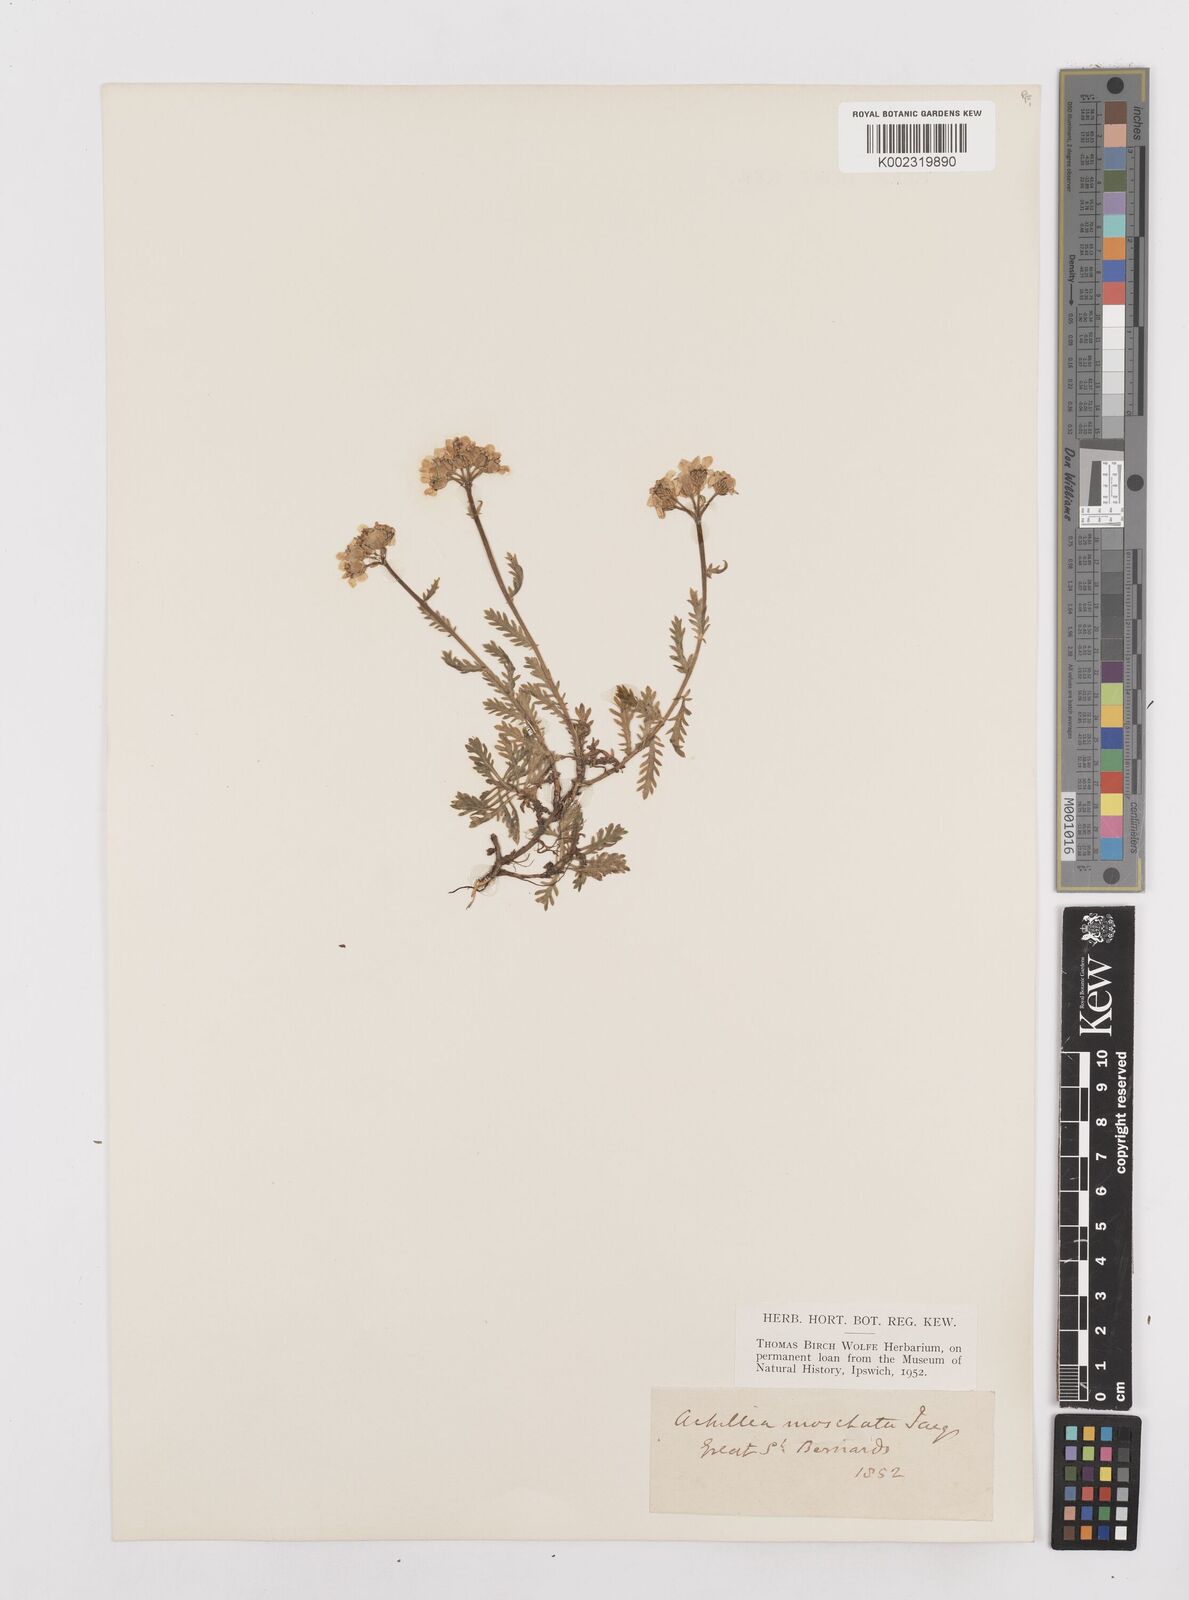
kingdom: Plantae
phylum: Tracheophyta
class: Magnoliopsida
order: Asterales
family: Asteraceae
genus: Achillea
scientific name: Achillea erba-rotta
